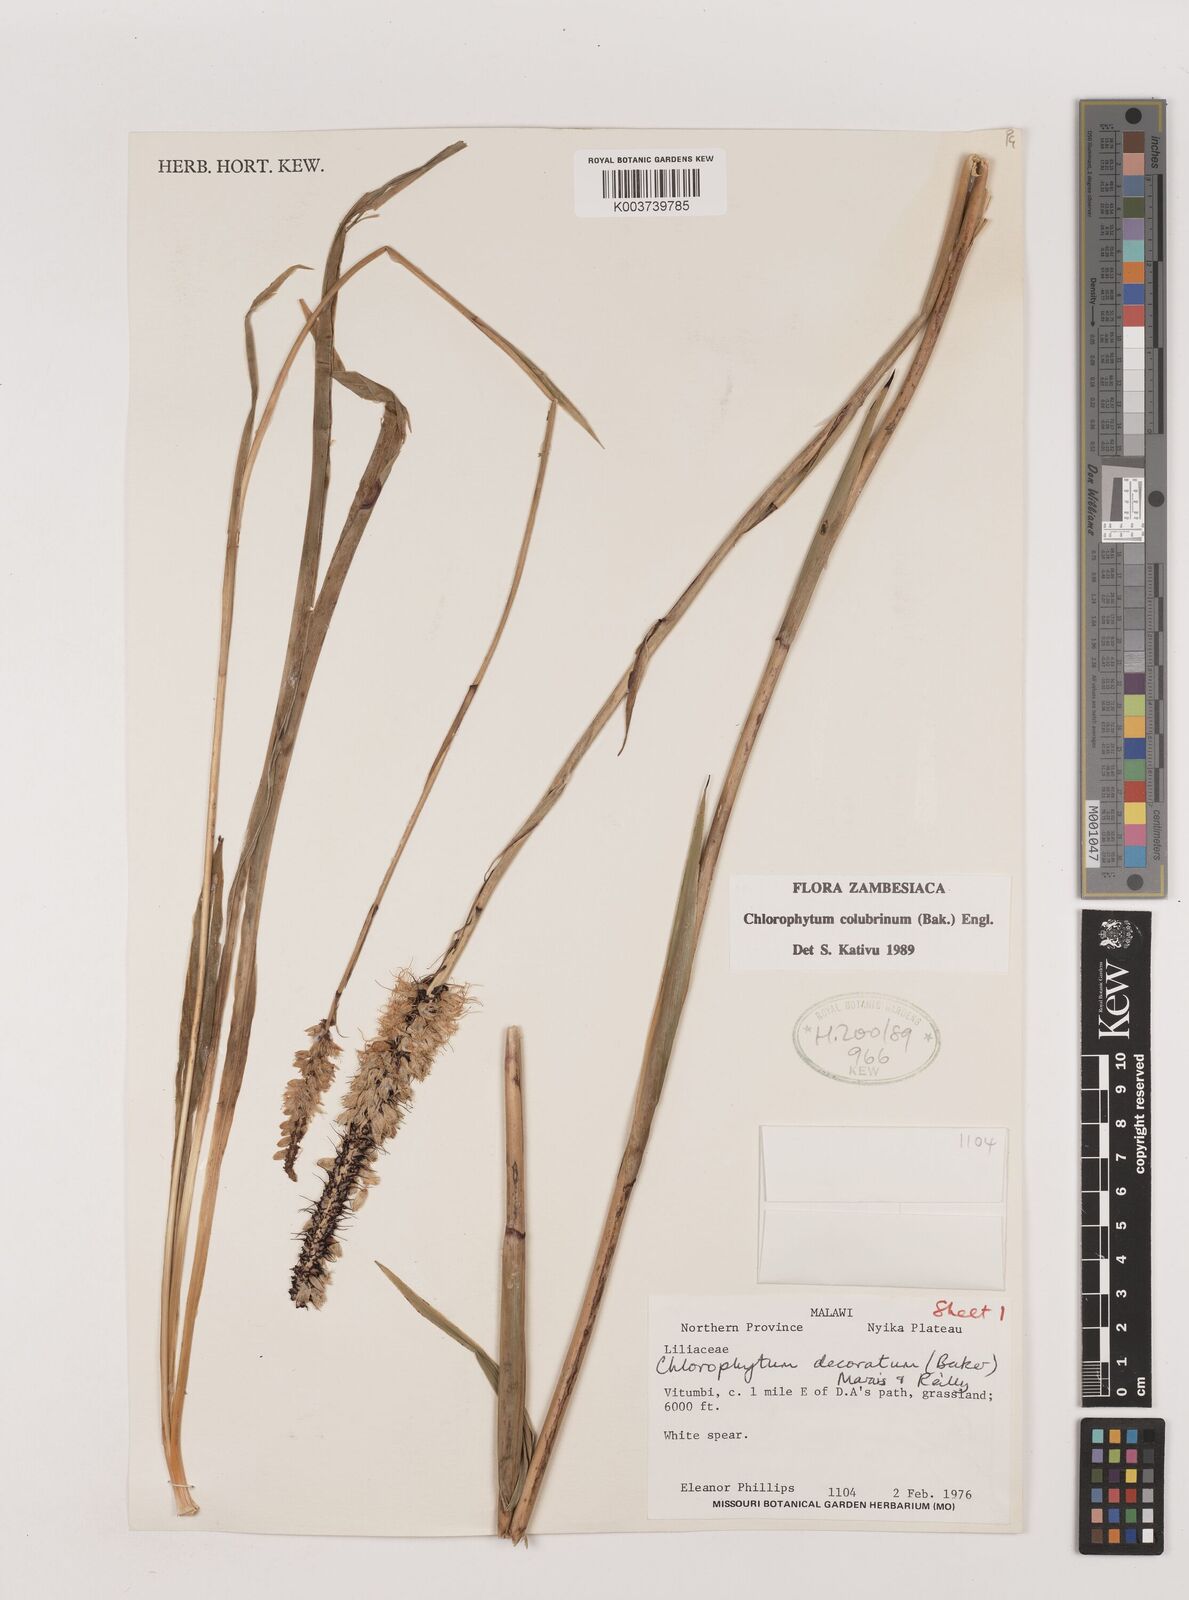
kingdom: Plantae
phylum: Tracheophyta
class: Liliopsida
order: Asparagales
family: Asparagaceae
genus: Chlorophytum
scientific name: Chlorophytum colubrinum
